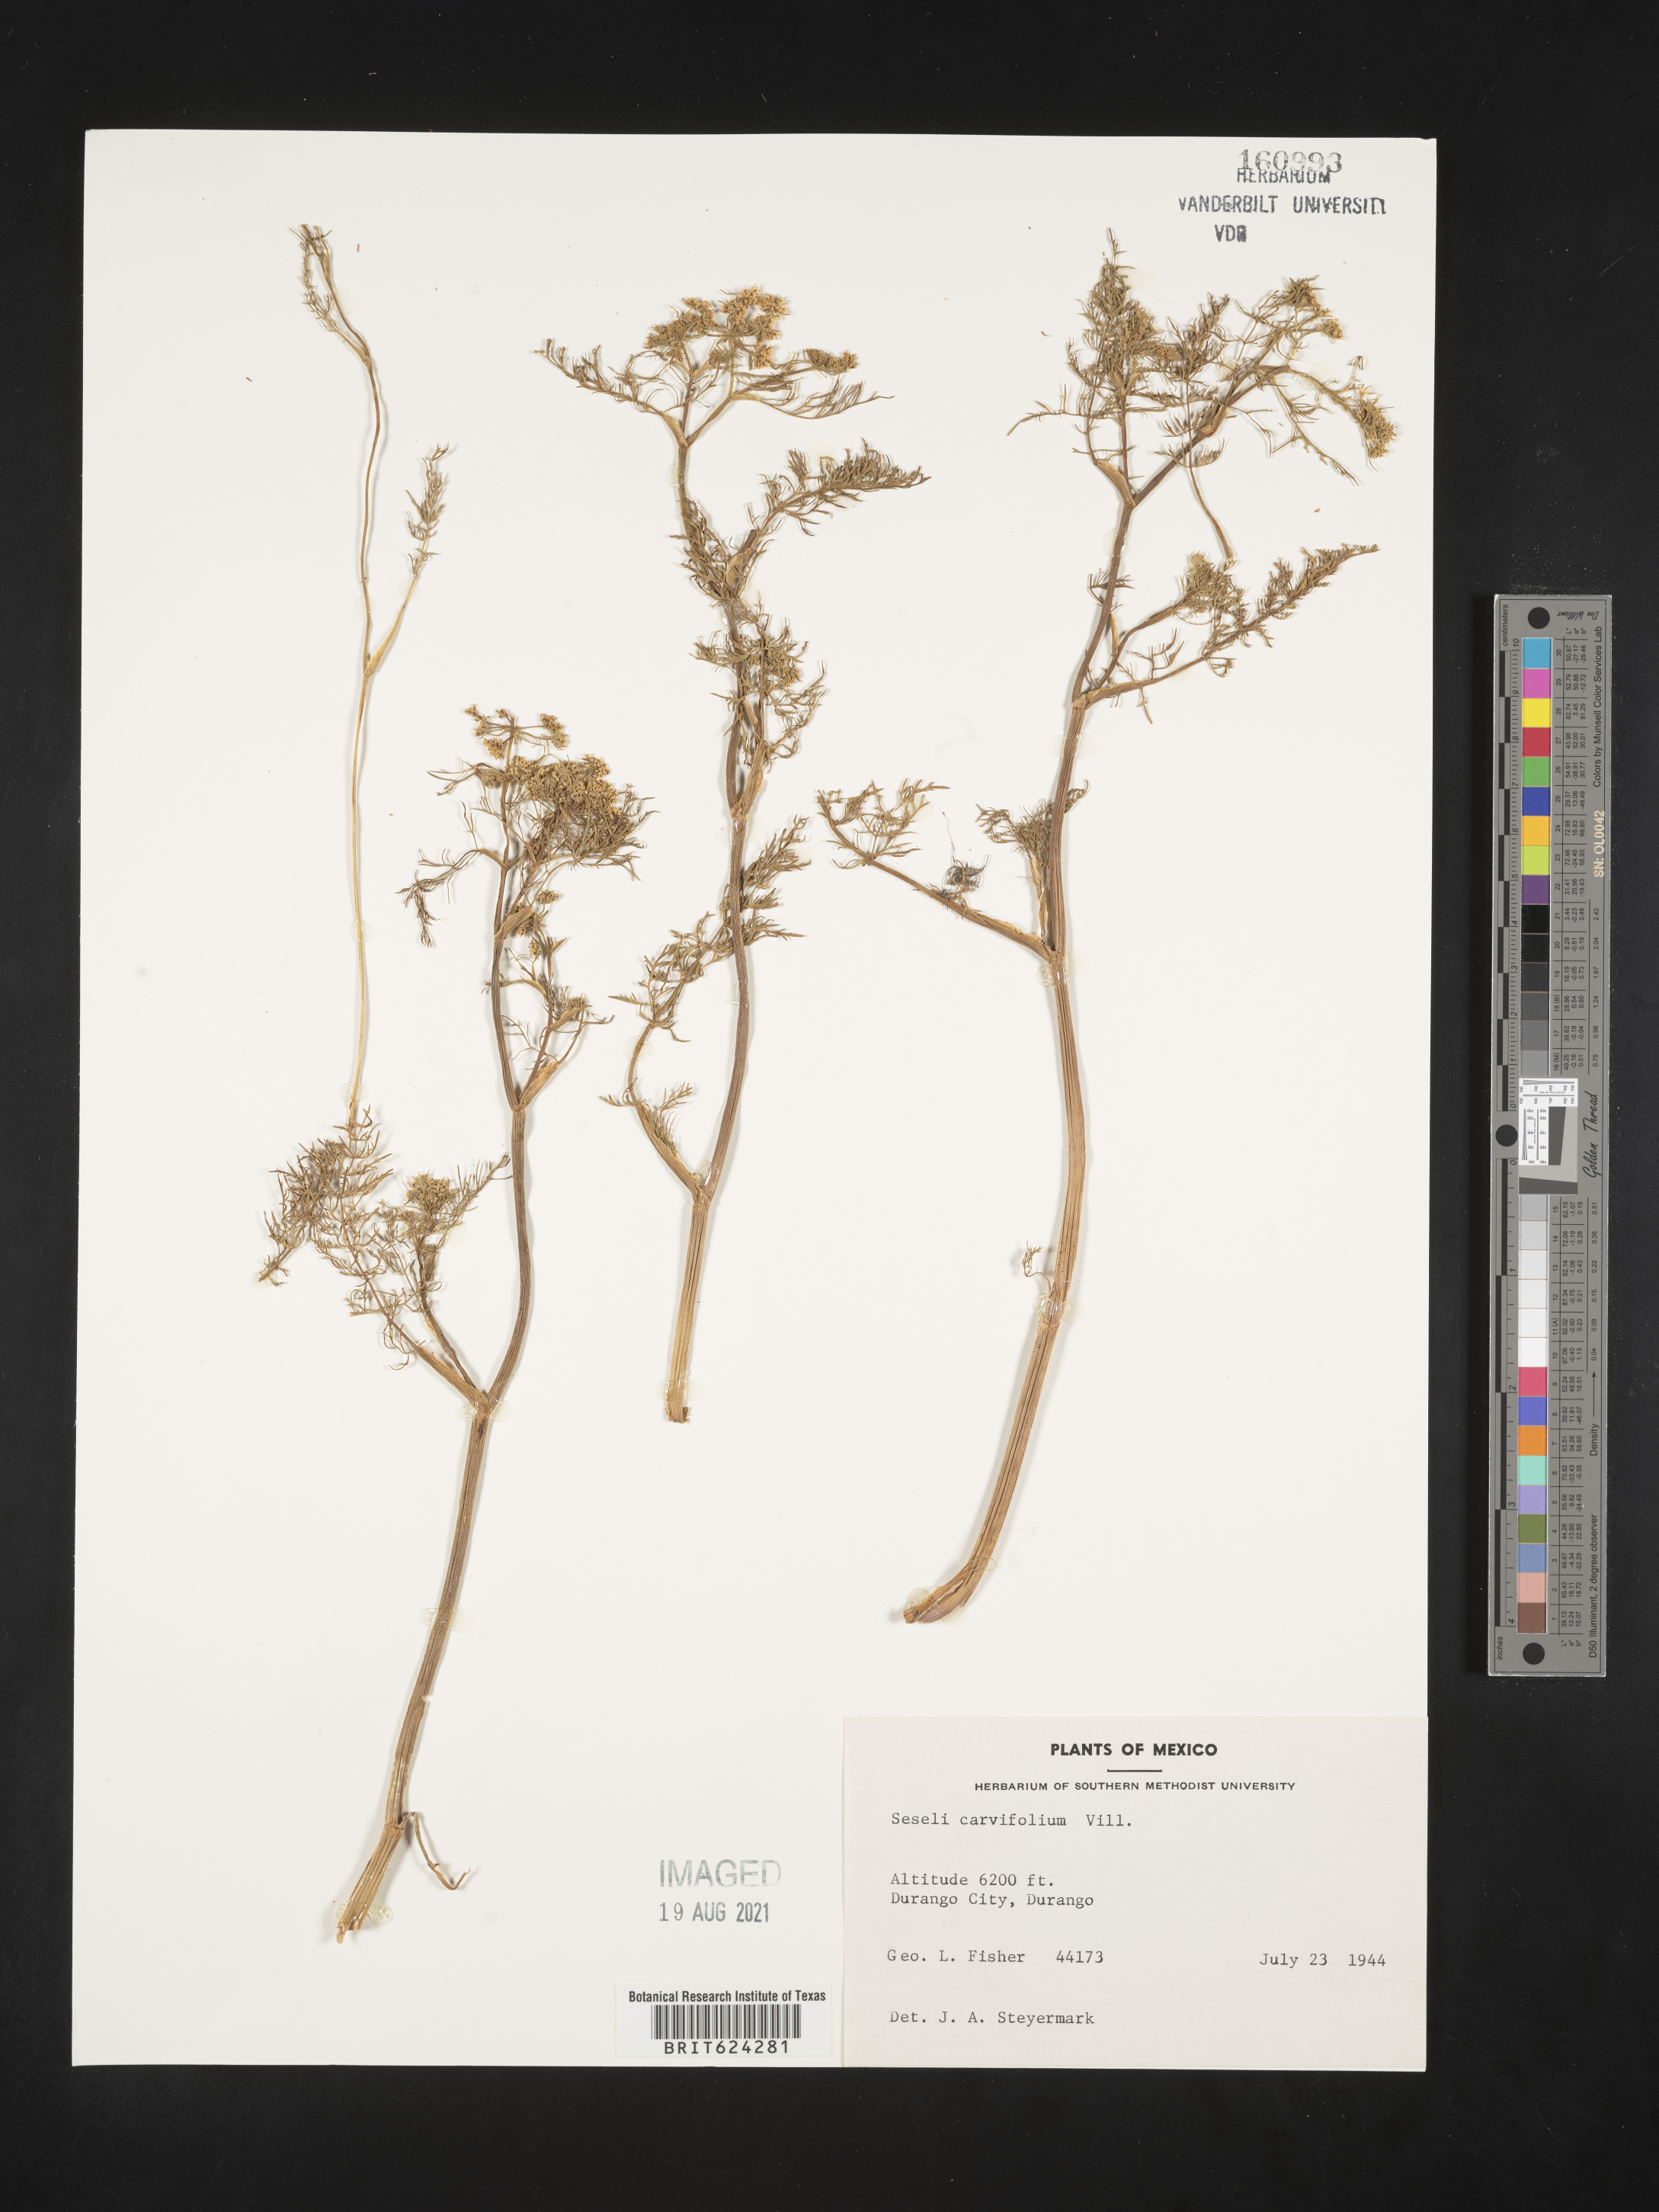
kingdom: Plantae
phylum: Tracheophyta
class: Magnoliopsida
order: Apiales
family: Apiaceae
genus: Seseli
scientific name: Seseli
